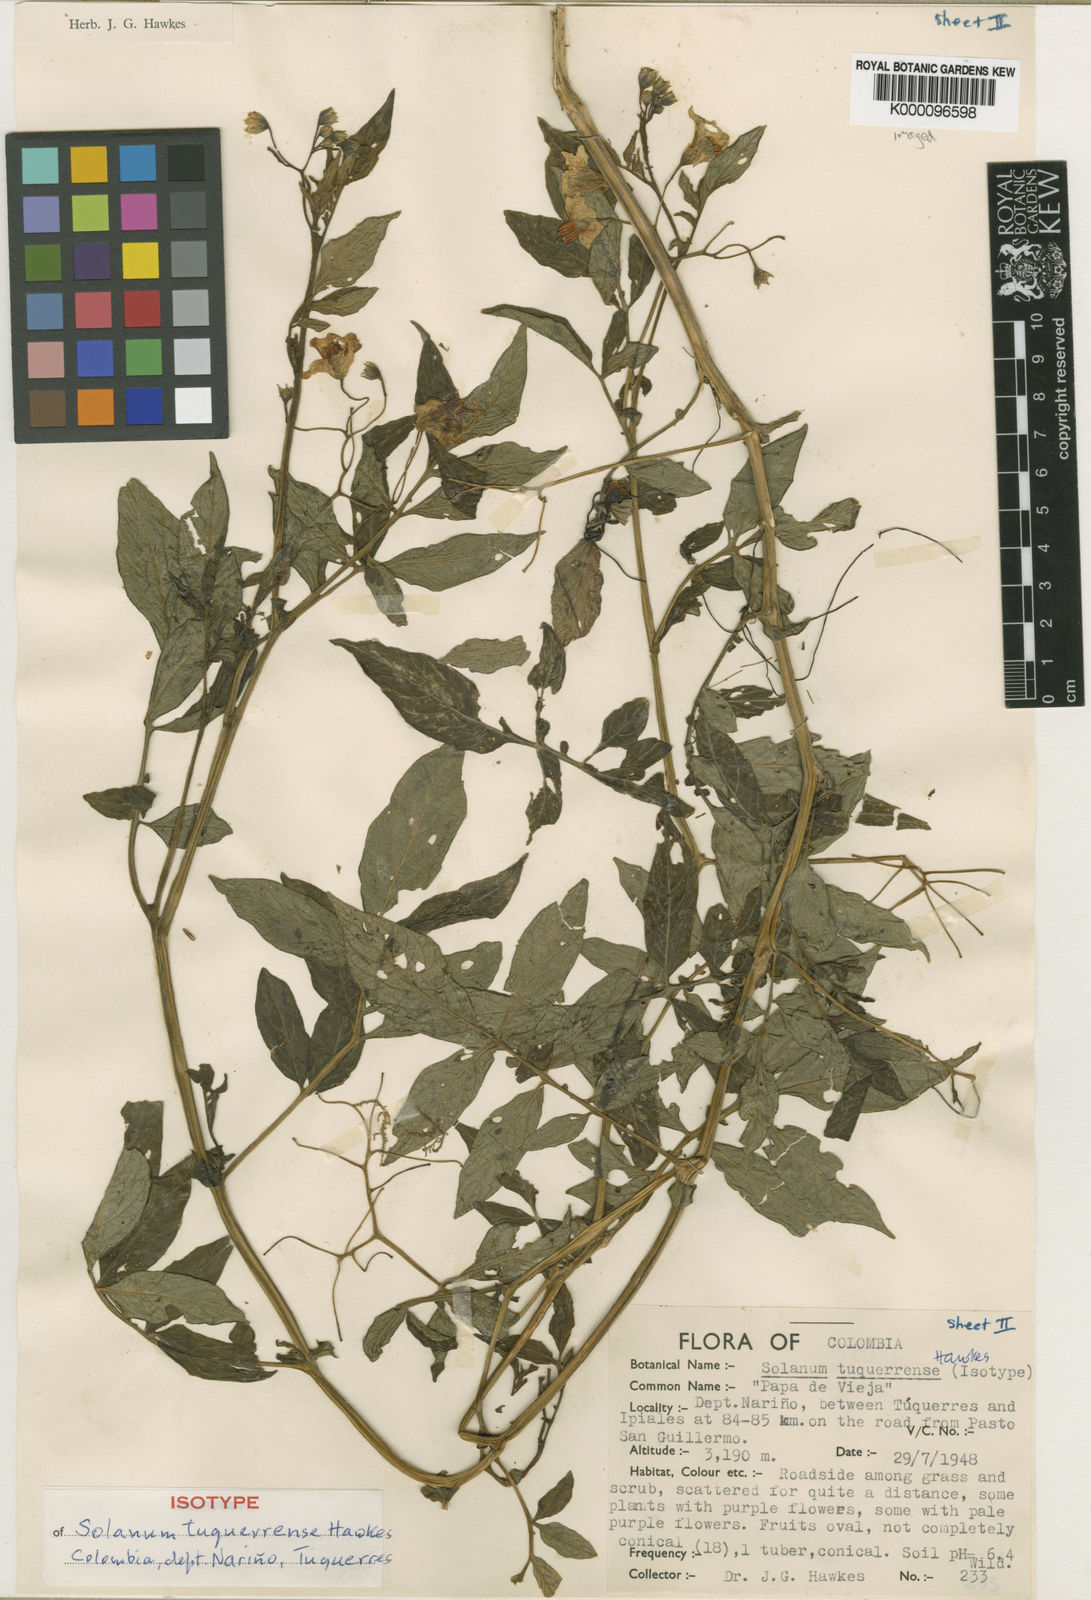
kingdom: Plantae
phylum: Tracheophyta
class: Magnoliopsida
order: Solanales
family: Solanaceae
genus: Solanum
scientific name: Solanum
